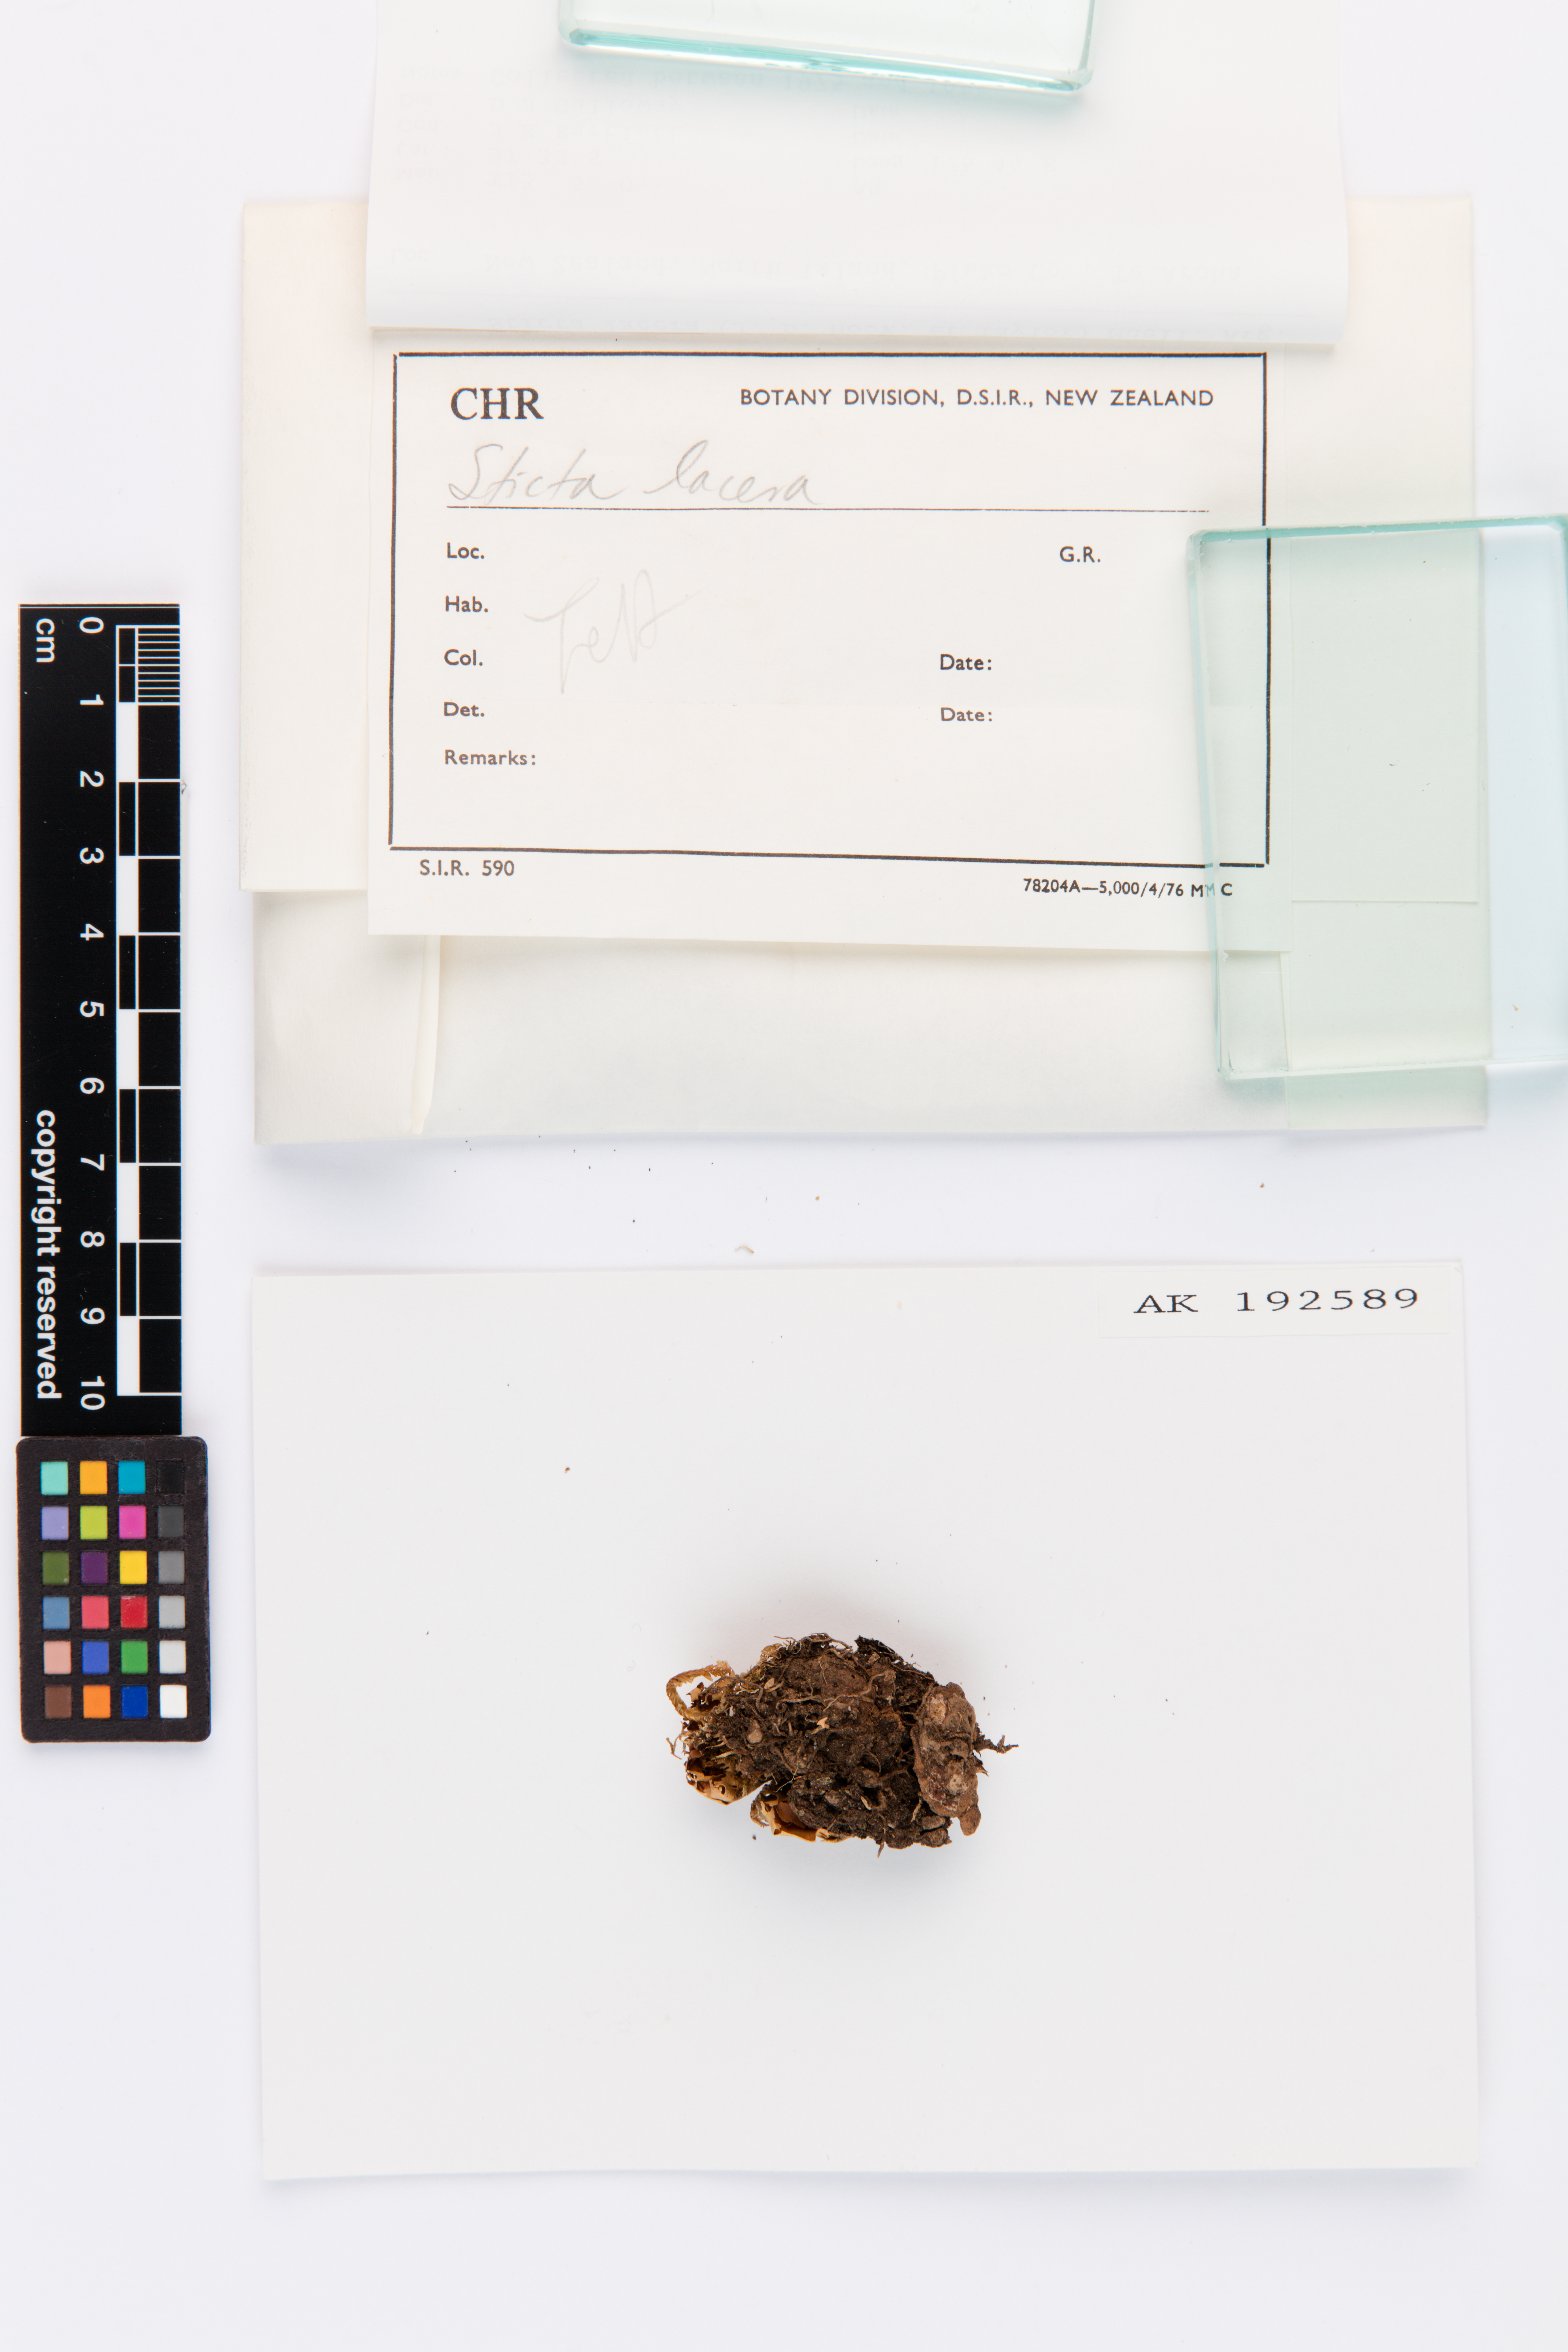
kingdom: Fungi
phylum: Ascomycota
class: Lecanoromycetes
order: Peltigerales
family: Lobariaceae
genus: Sticta
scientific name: Sticta
